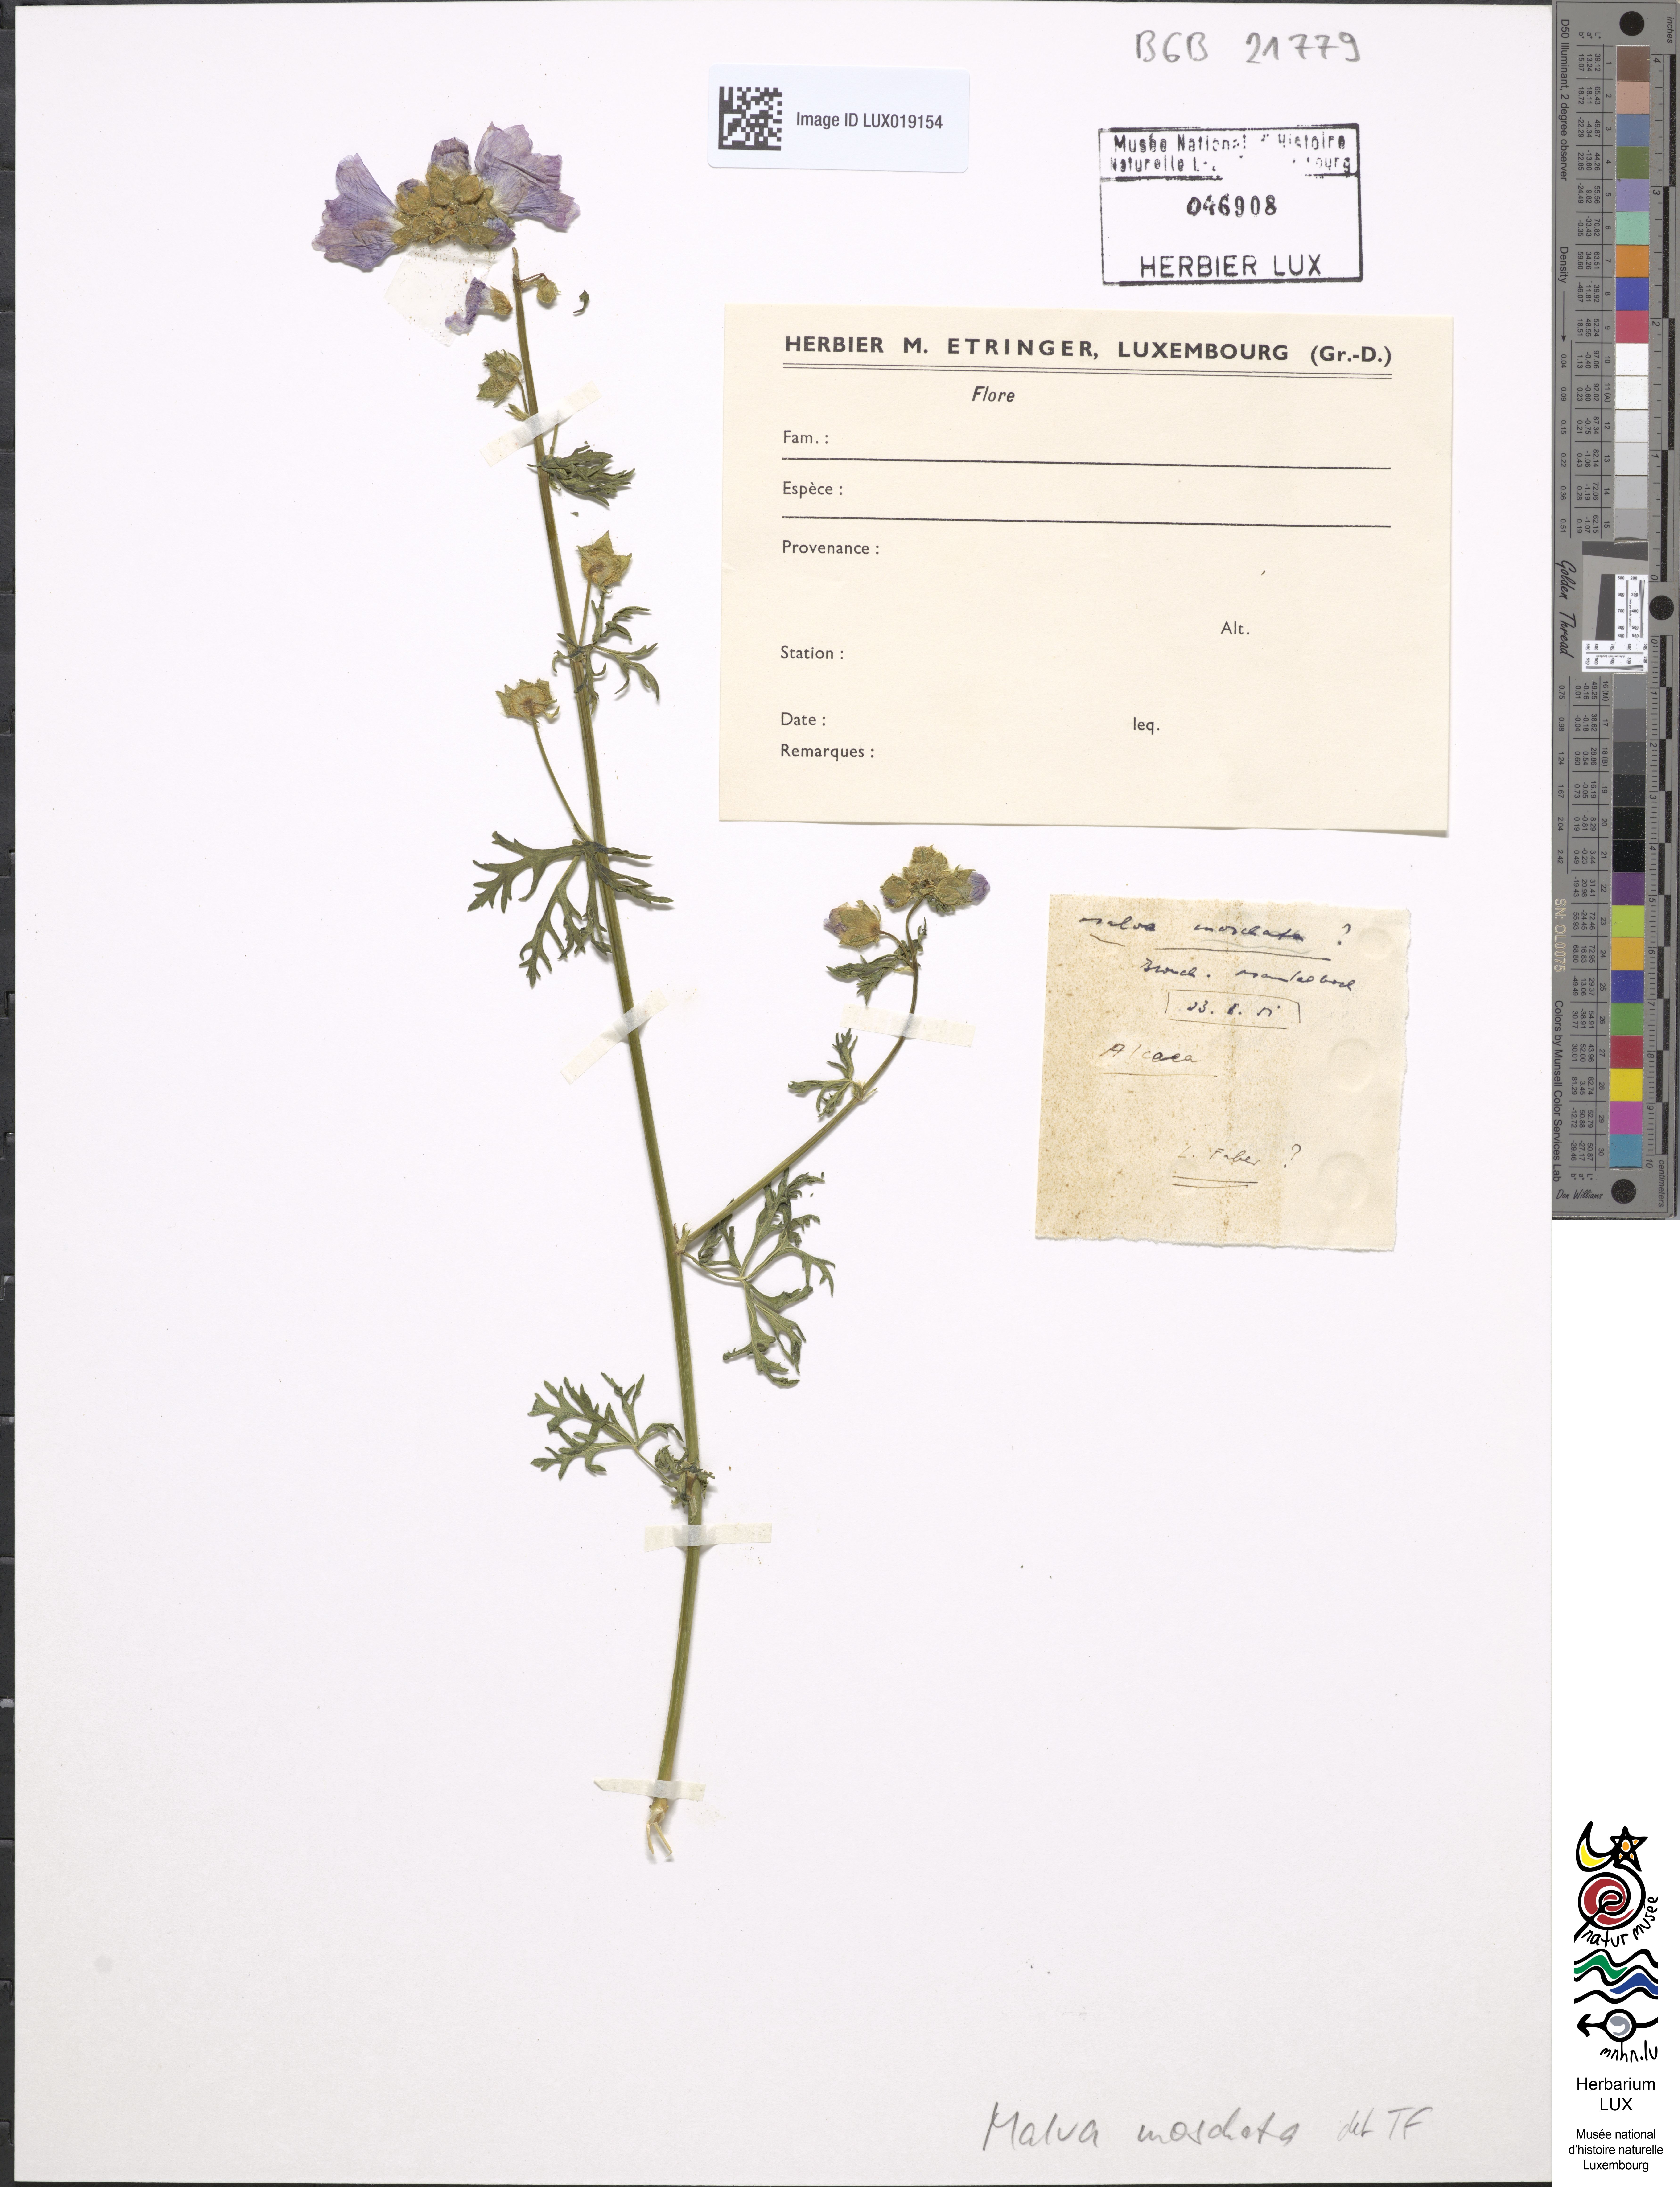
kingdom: Plantae
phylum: Tracheophyta
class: Magnoliopsida
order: Malvales
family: Malvaceae
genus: Malva
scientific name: Malva moschata
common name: Musk mallow
